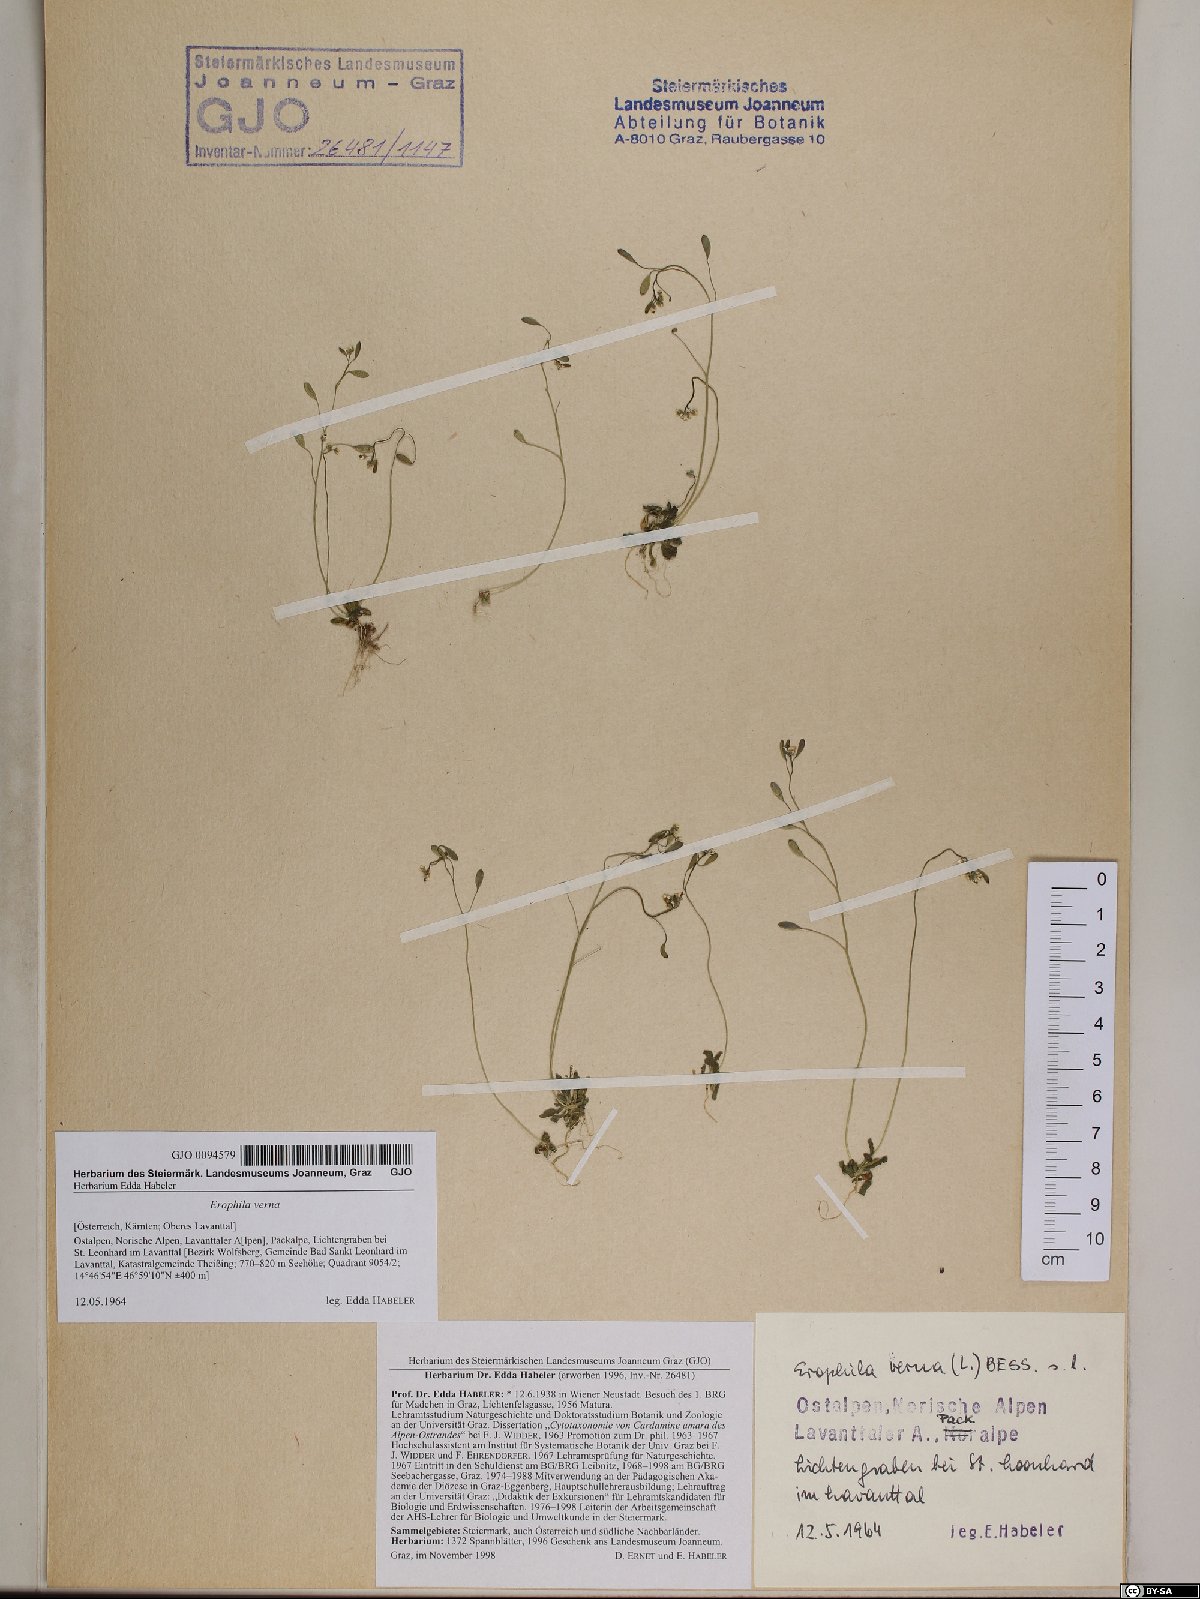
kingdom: Plantae
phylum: Tracheophyta
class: Magnoliopsida
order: Brassicales
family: Brassicaceae
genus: Draba
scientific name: Draba verna
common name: Spring draba
